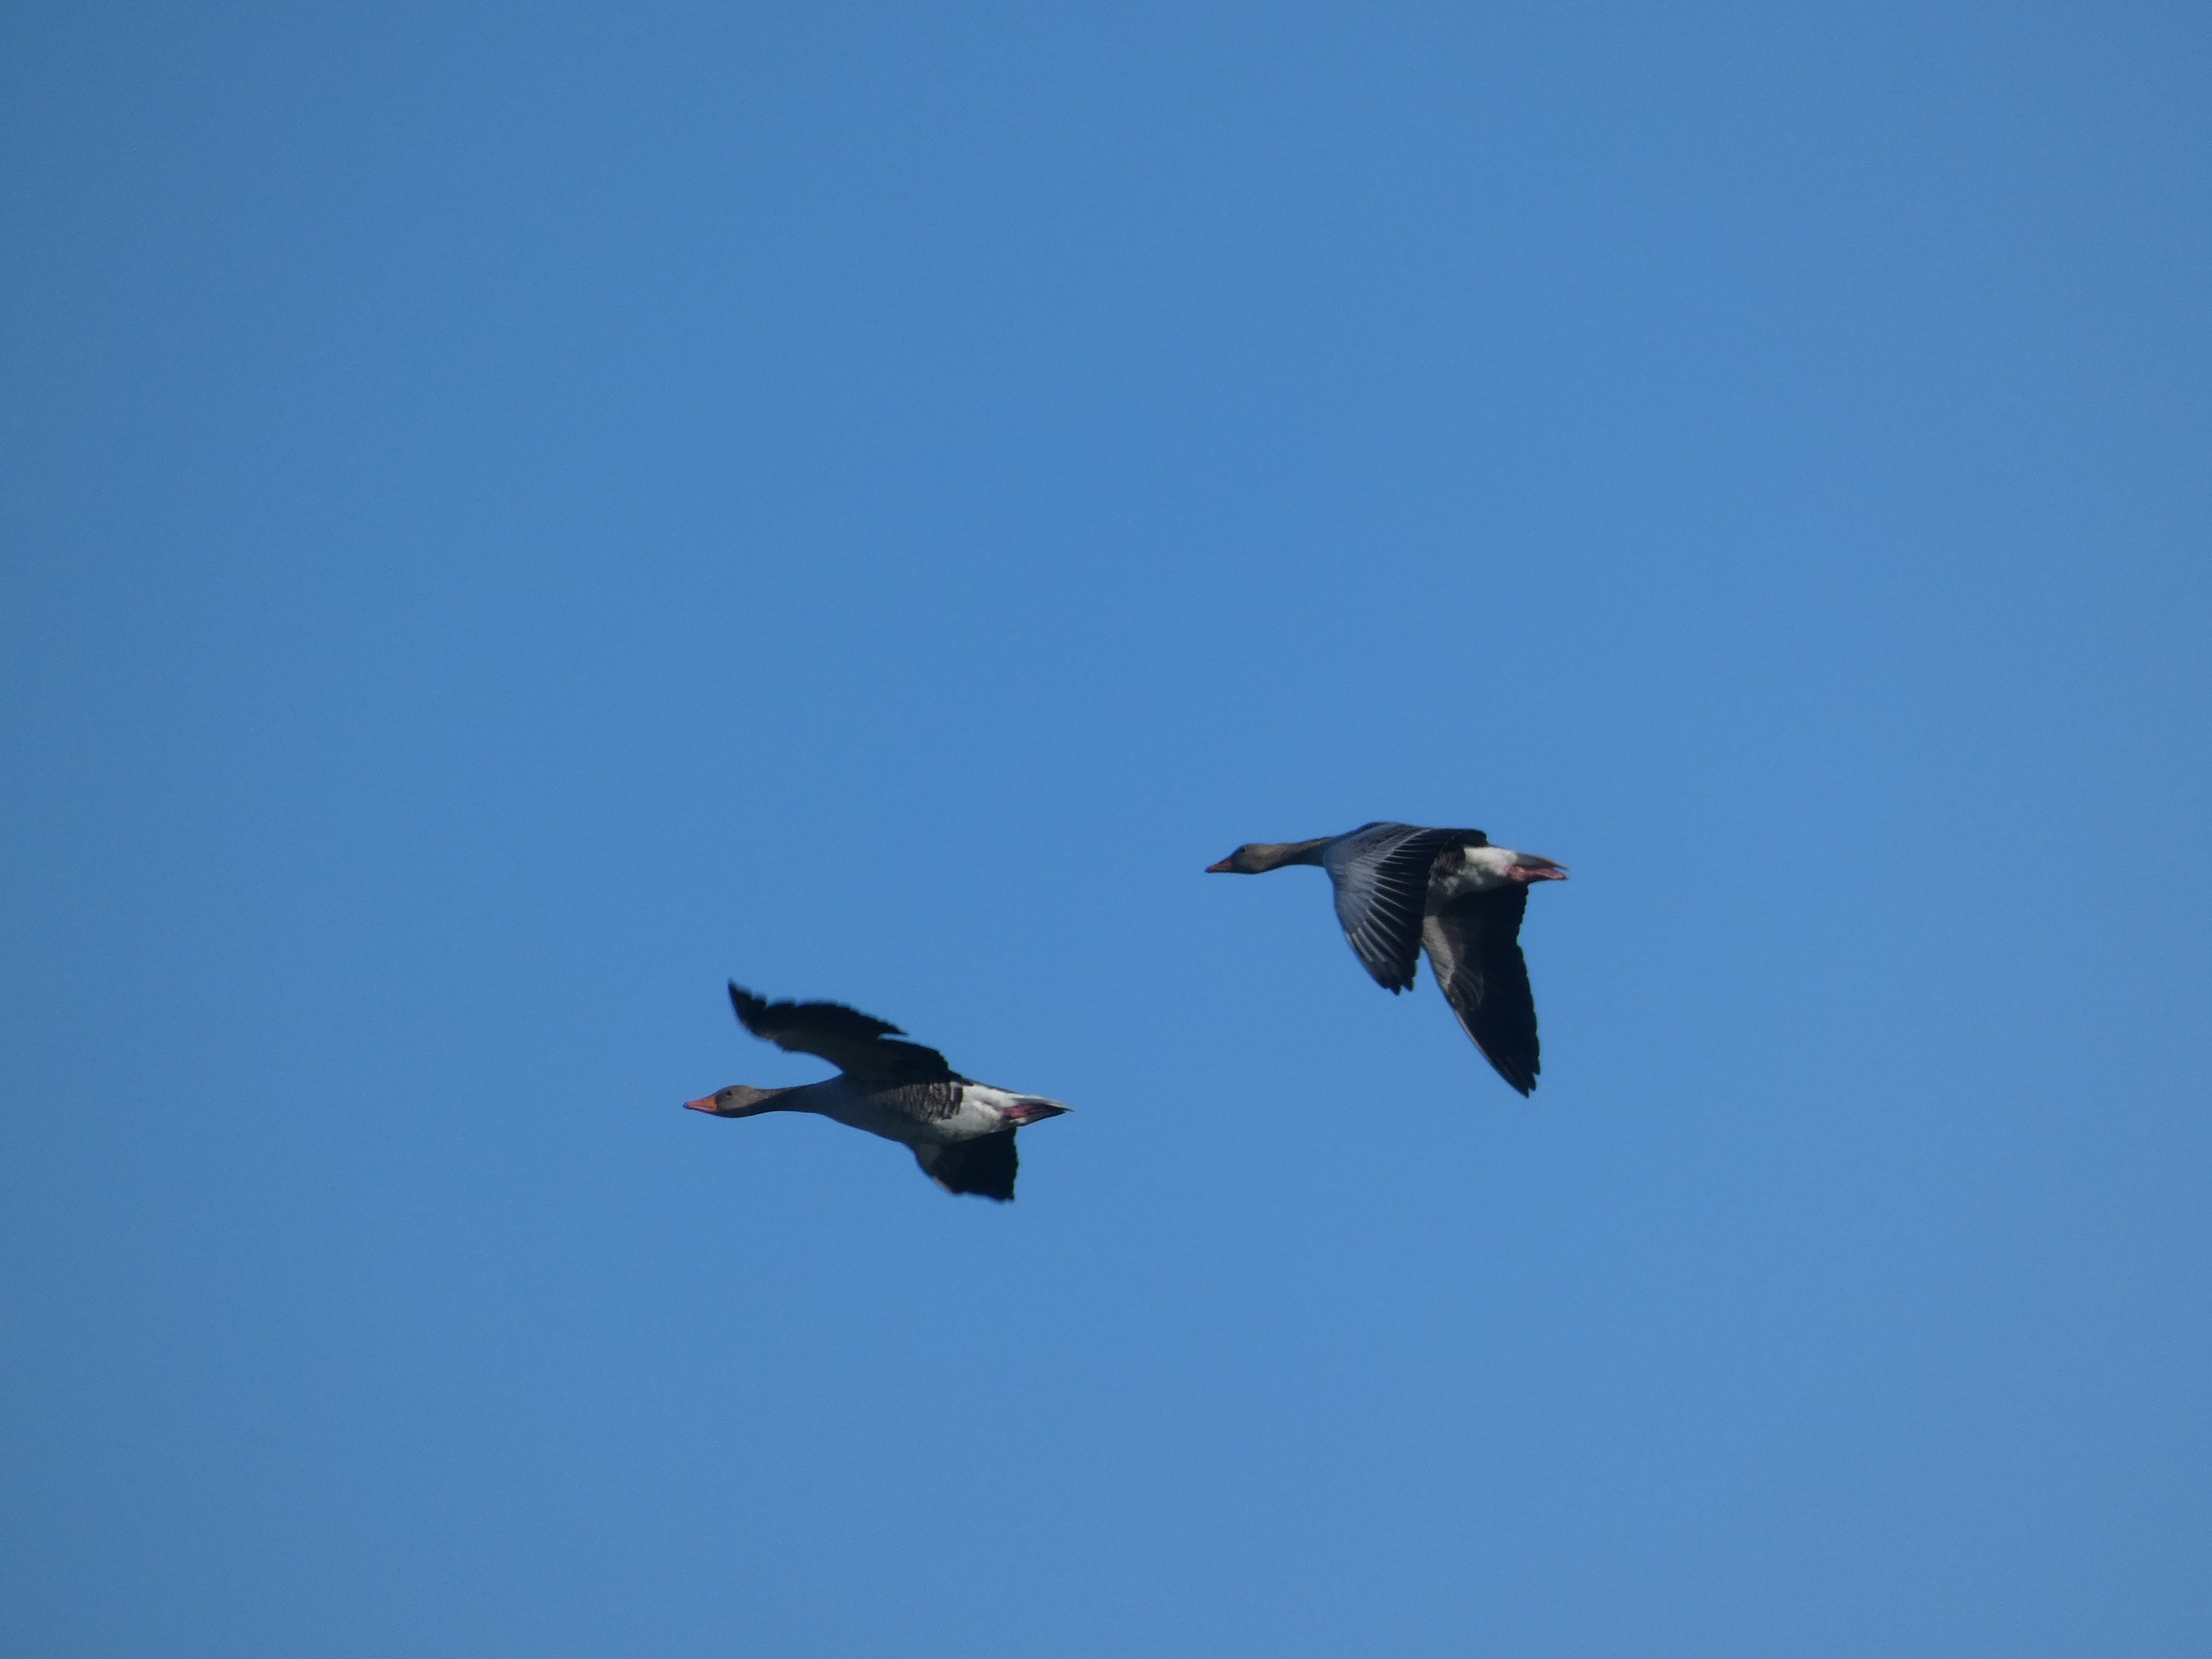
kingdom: Animalia
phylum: Chordata
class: Aves
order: Anseriformes
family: Anatidae
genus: Anser
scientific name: Anser anser
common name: Grågås
